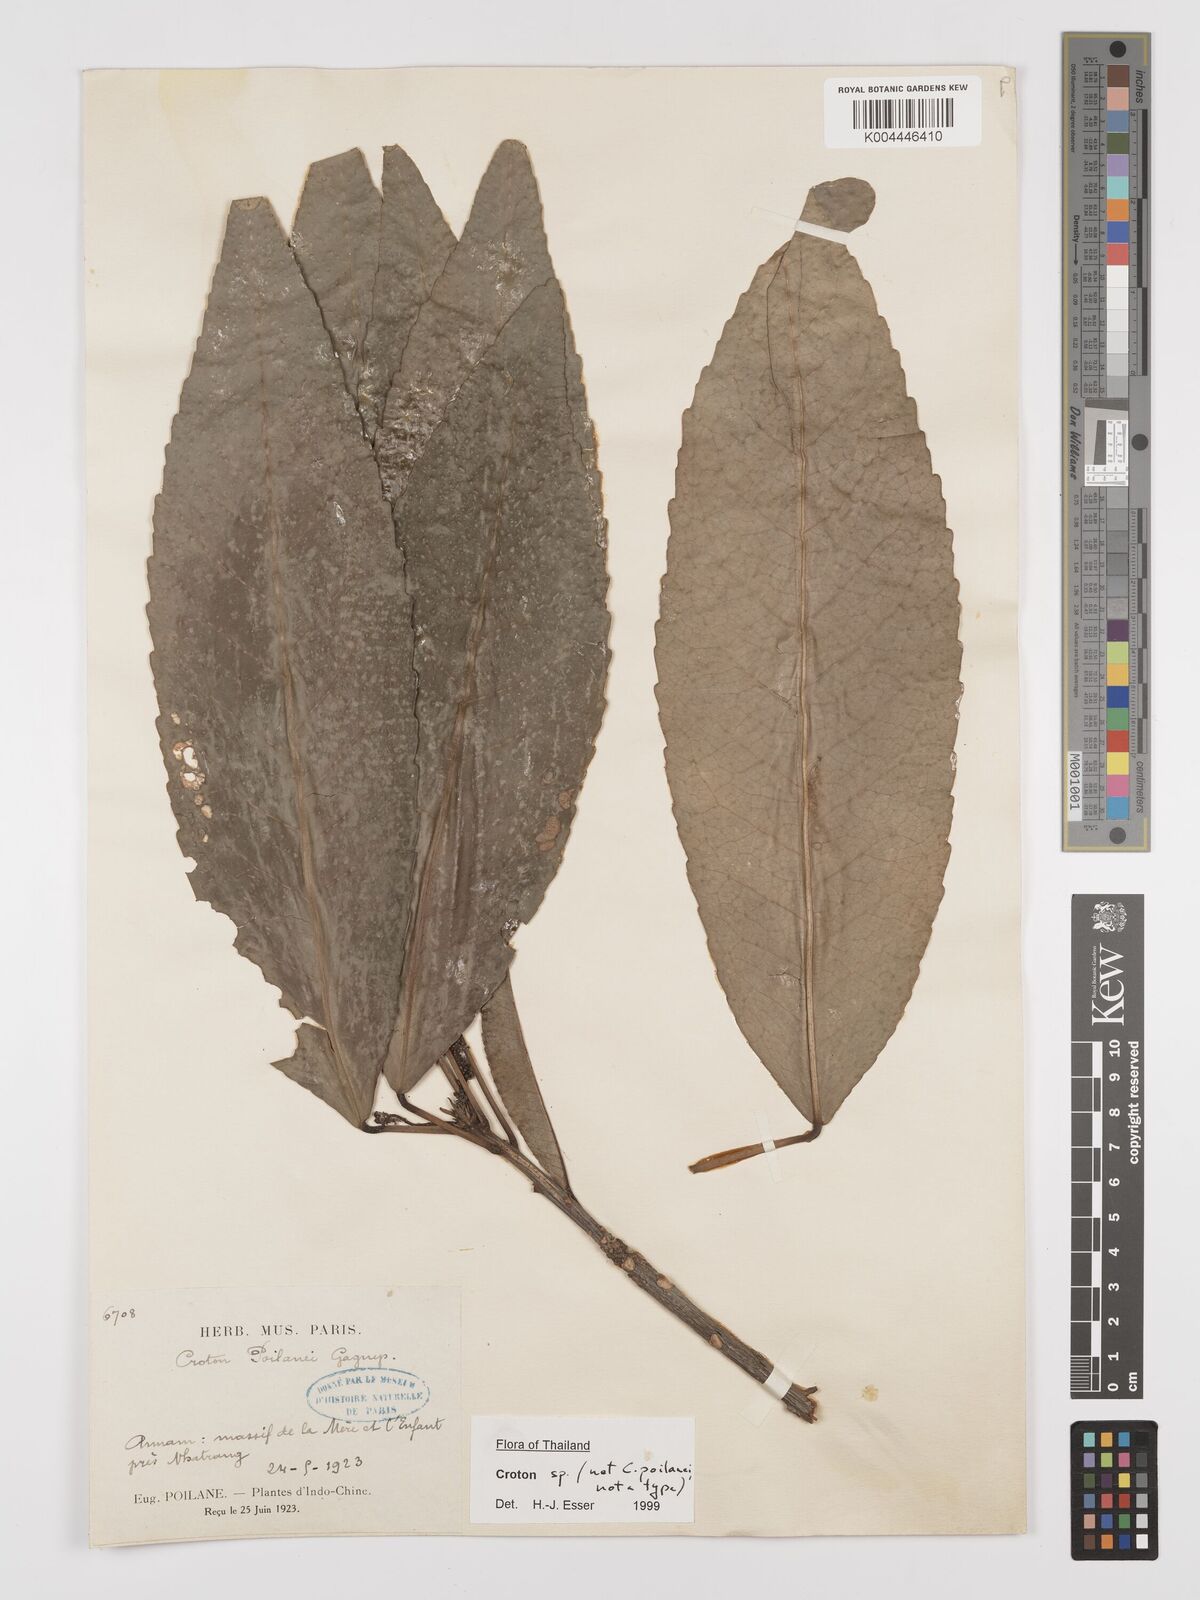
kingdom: Plantae
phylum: Tracheophyta
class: Magnoliopsida
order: Malpighiales
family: Euphorbiaceae
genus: Croton
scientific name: Croton
